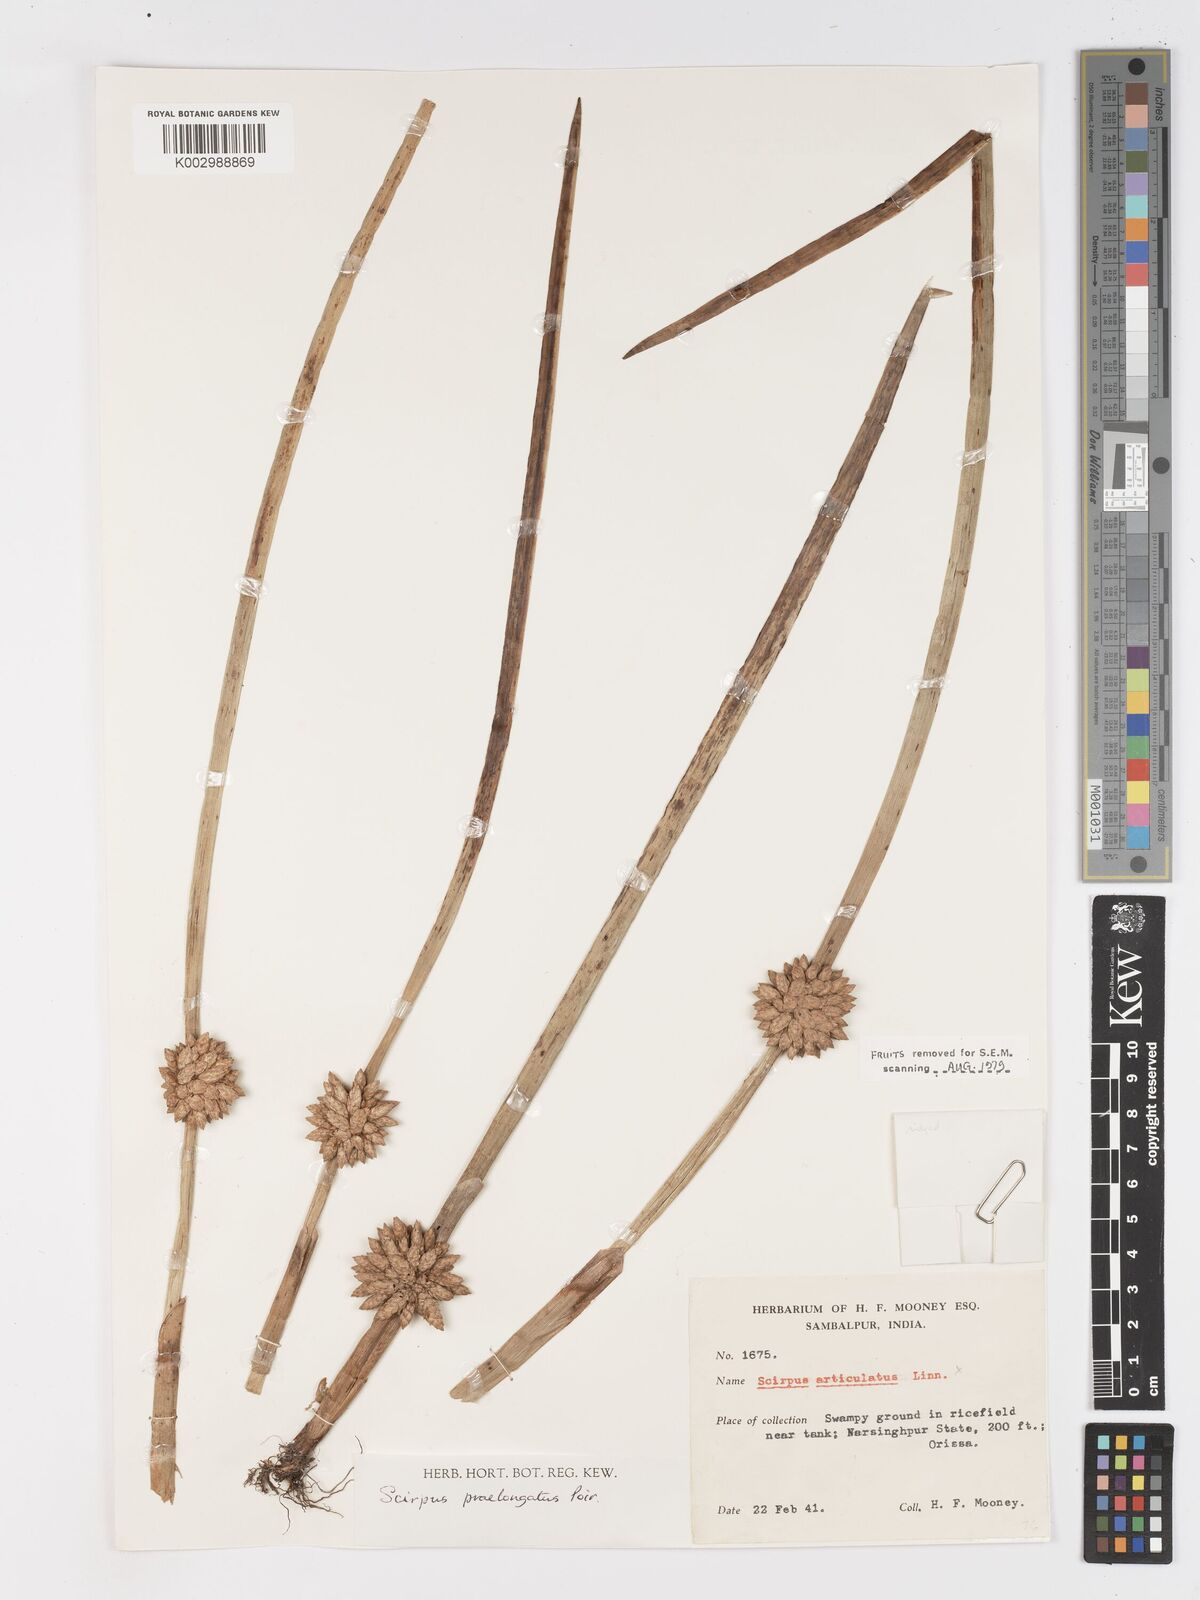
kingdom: Plantae
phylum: Tracheophyta
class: Liliopsida
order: Poales
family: Cyperaceae
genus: Schoenoplectiella
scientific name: Schoenoplectiella praelongata
